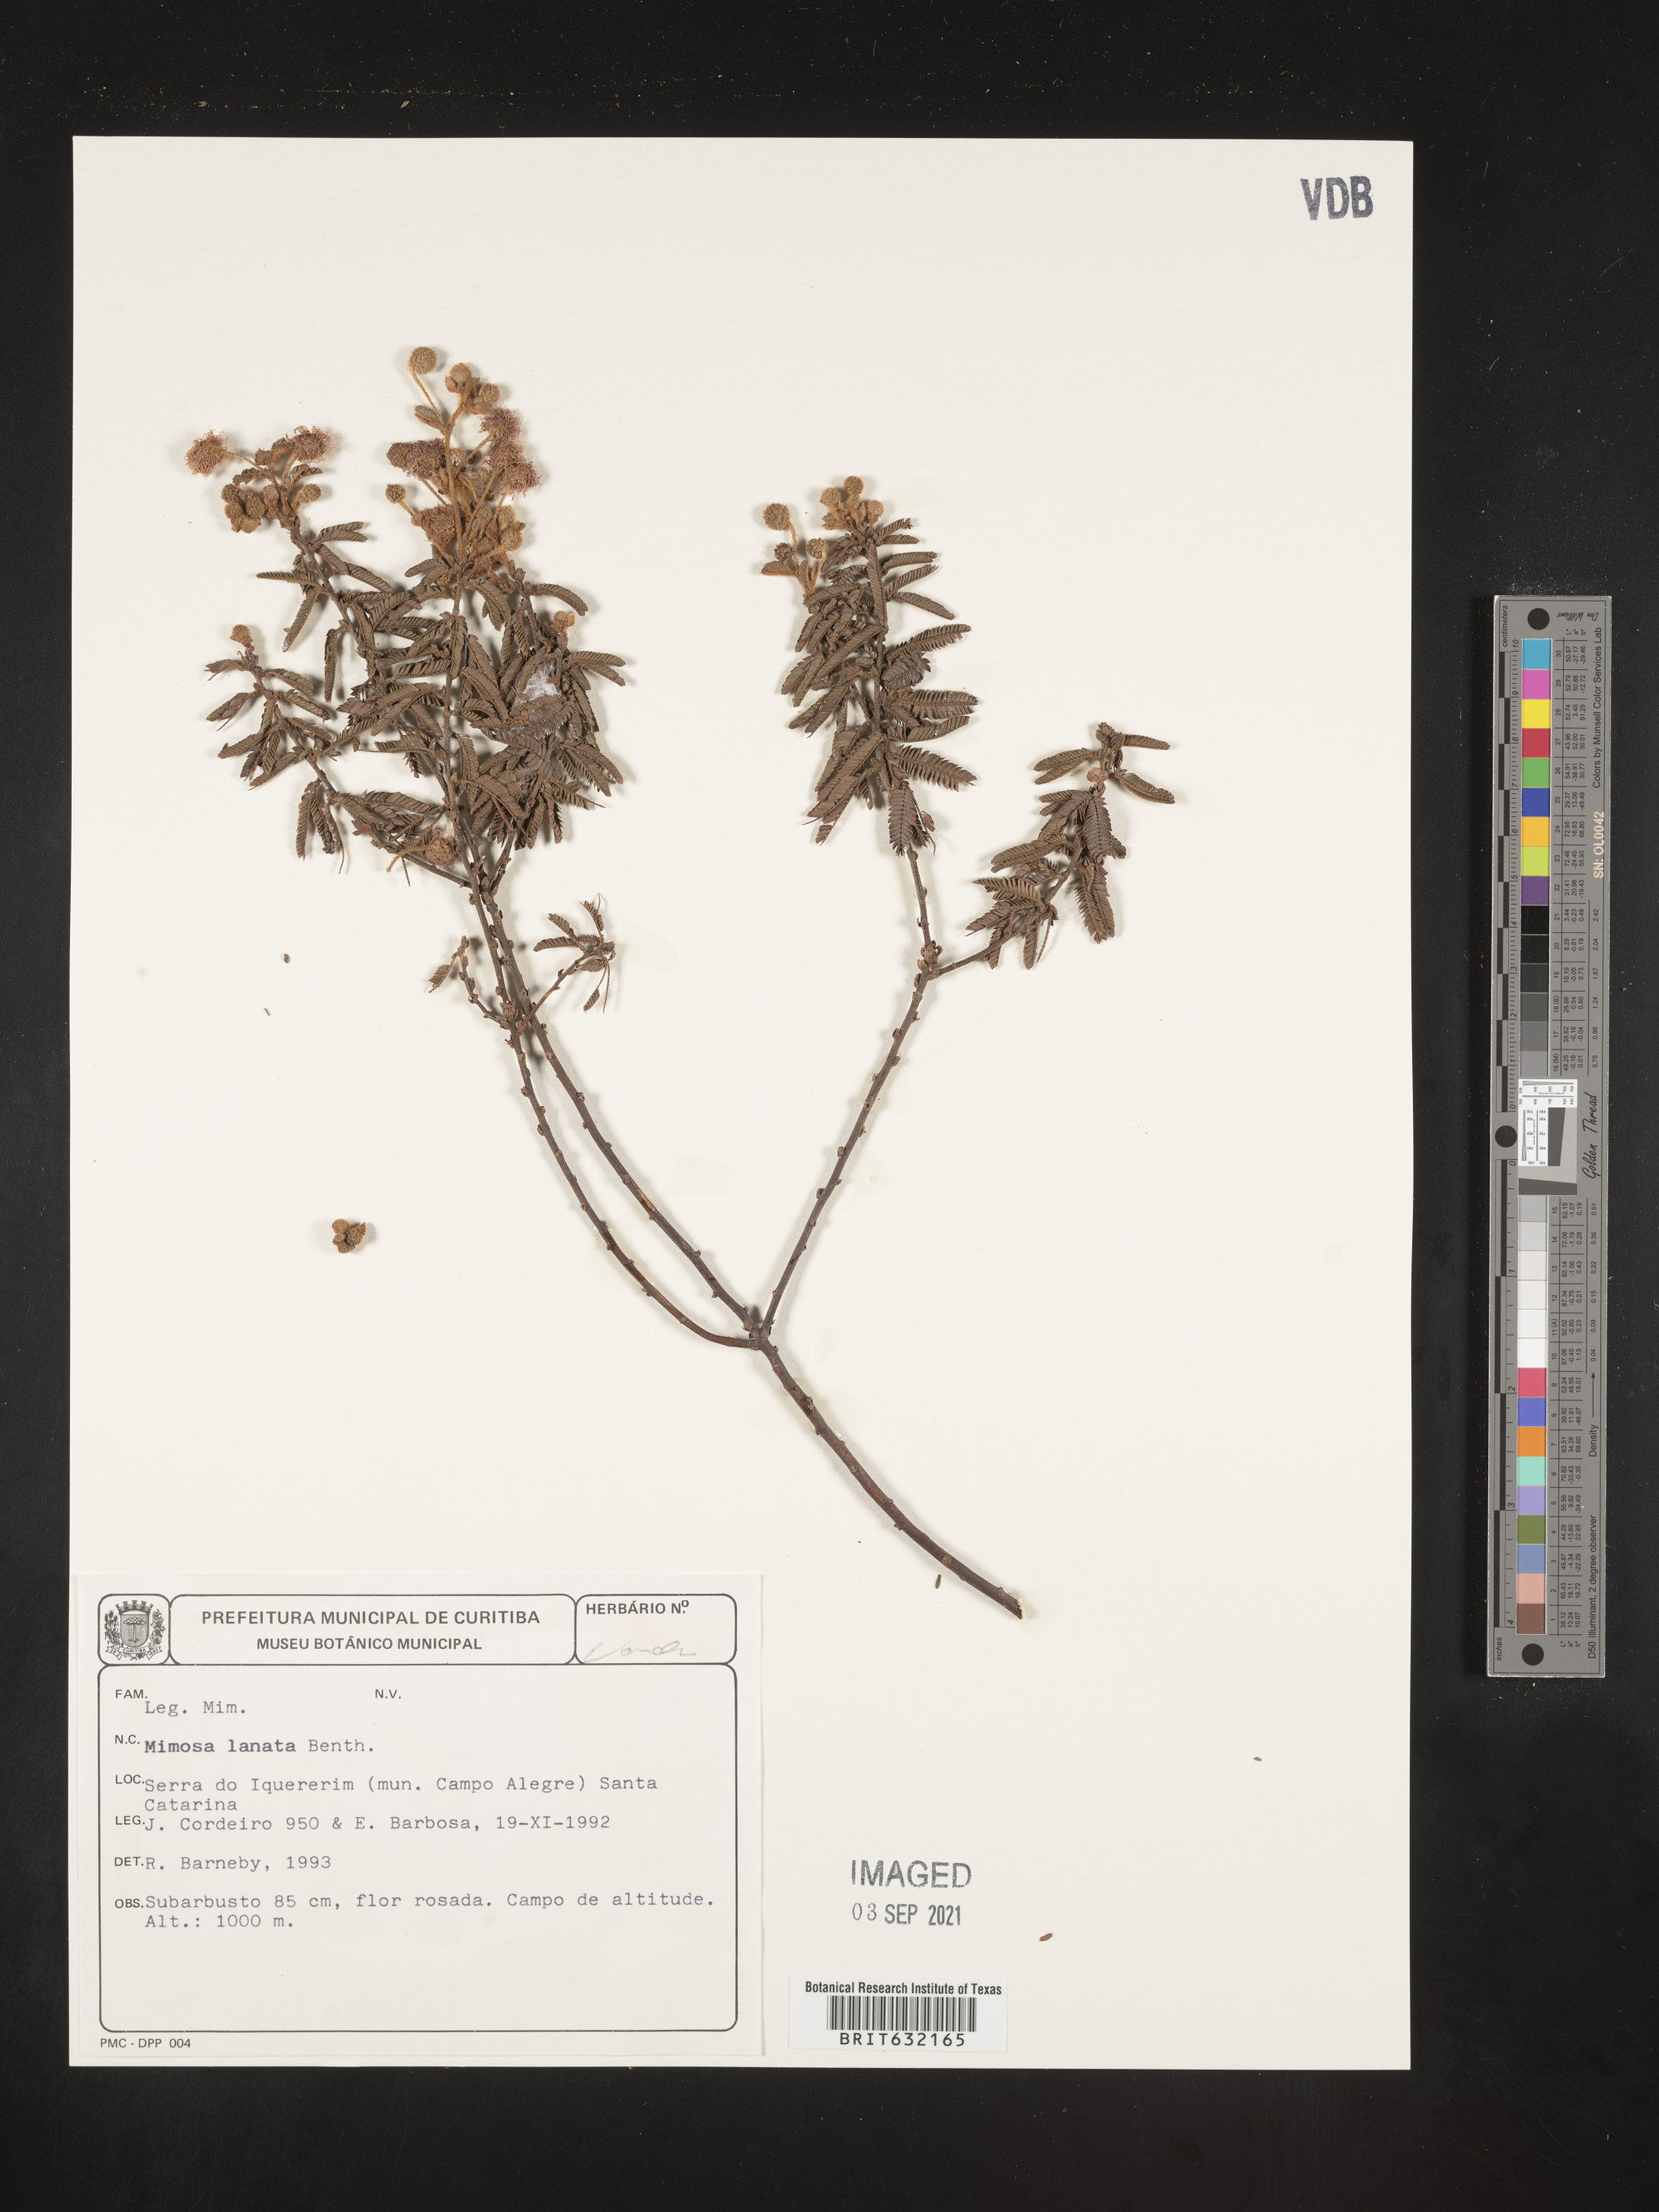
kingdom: Plantae
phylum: Tracheophyta
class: Magnoliopsida
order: Fabales
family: Fabaceae
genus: Mimosa
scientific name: Mimosa
